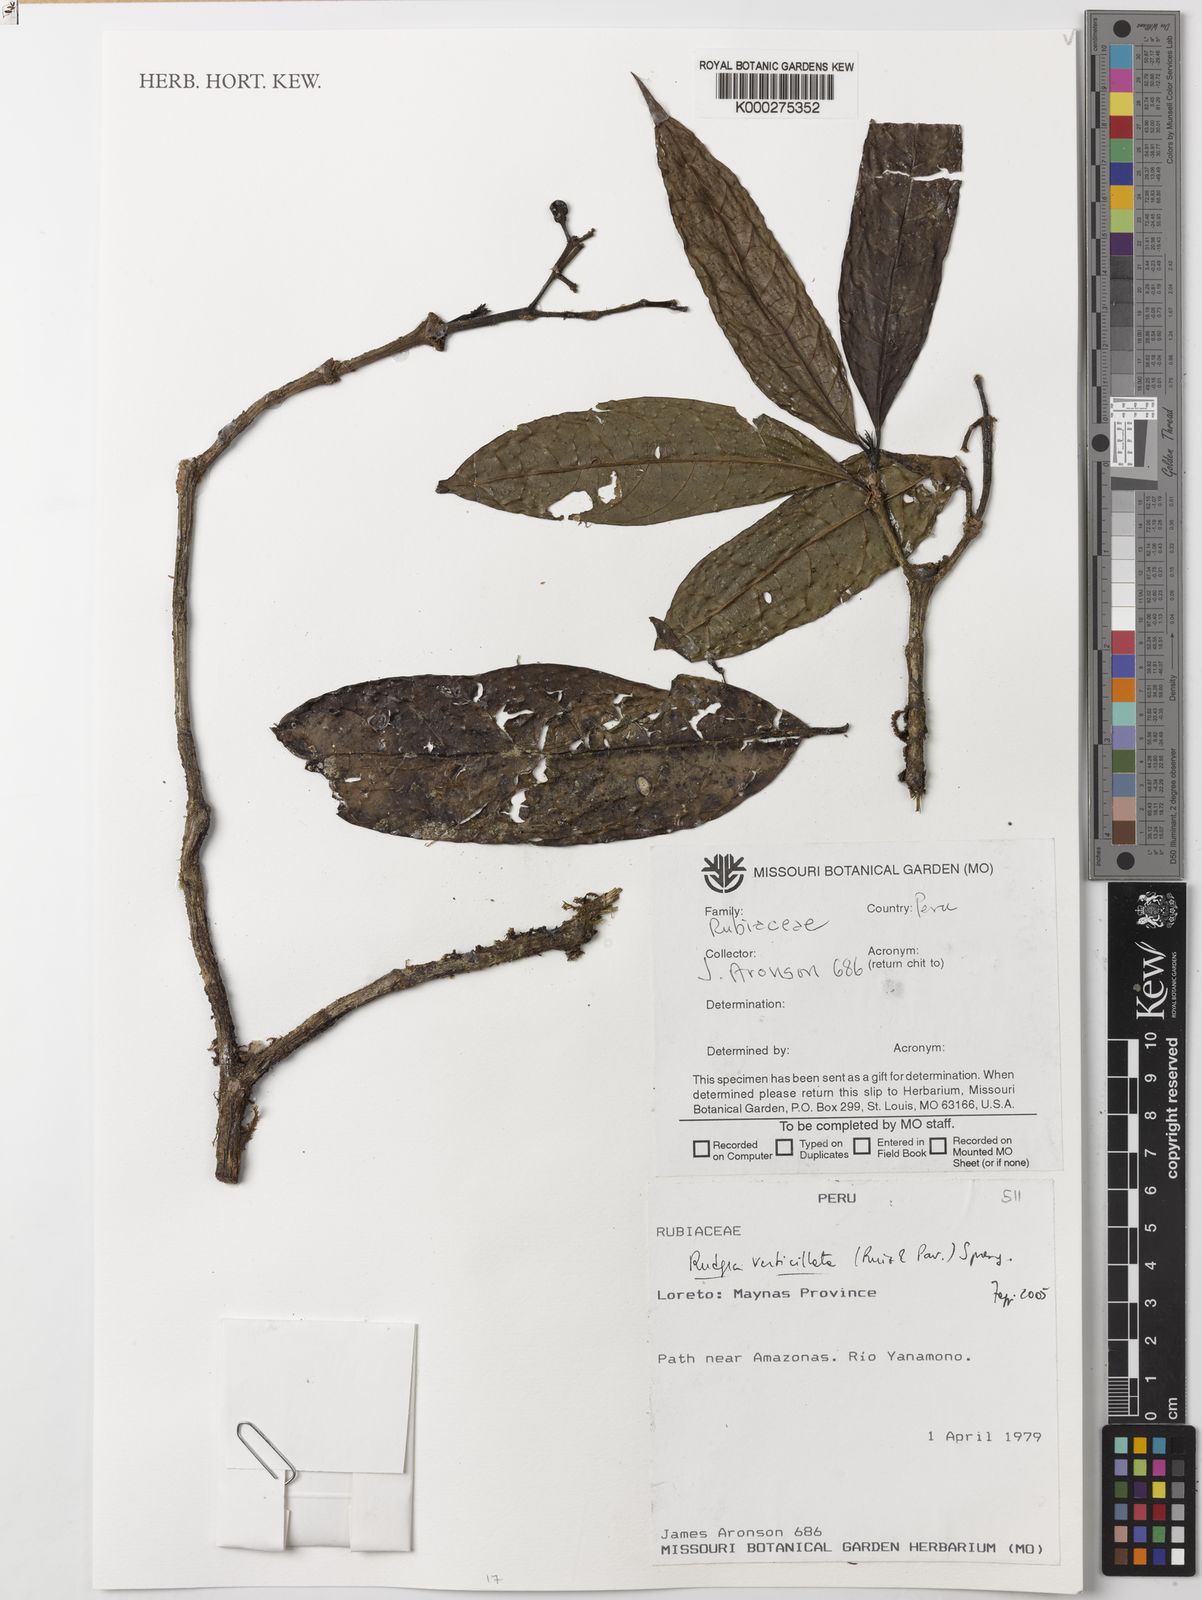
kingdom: Plantae
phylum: Tracheophyta
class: Magnoliopsida
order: Gentianales
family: Rubiaceae
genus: Rudgea
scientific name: Rudgea verticillata
